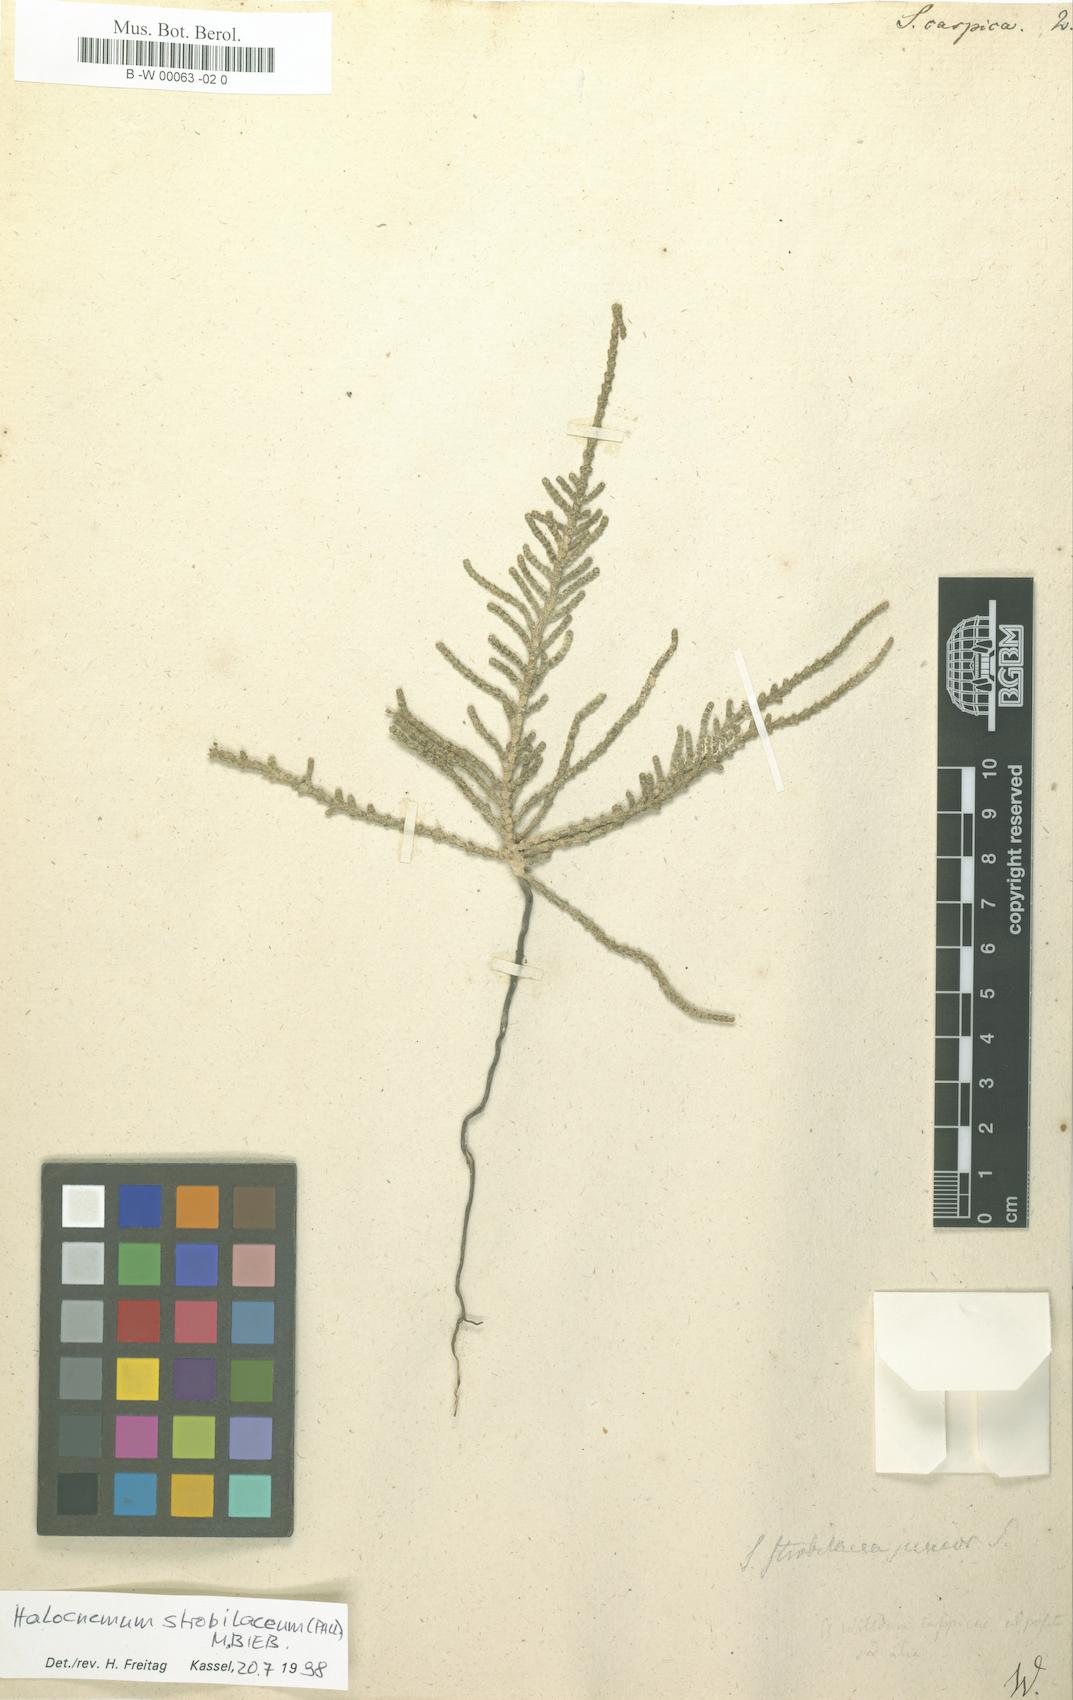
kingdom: Plantae
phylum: Tracheophyta
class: Magnoliopsida
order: Caryophyllales
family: Amaranthaceae
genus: Halostachys
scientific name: Halostachys caspica
